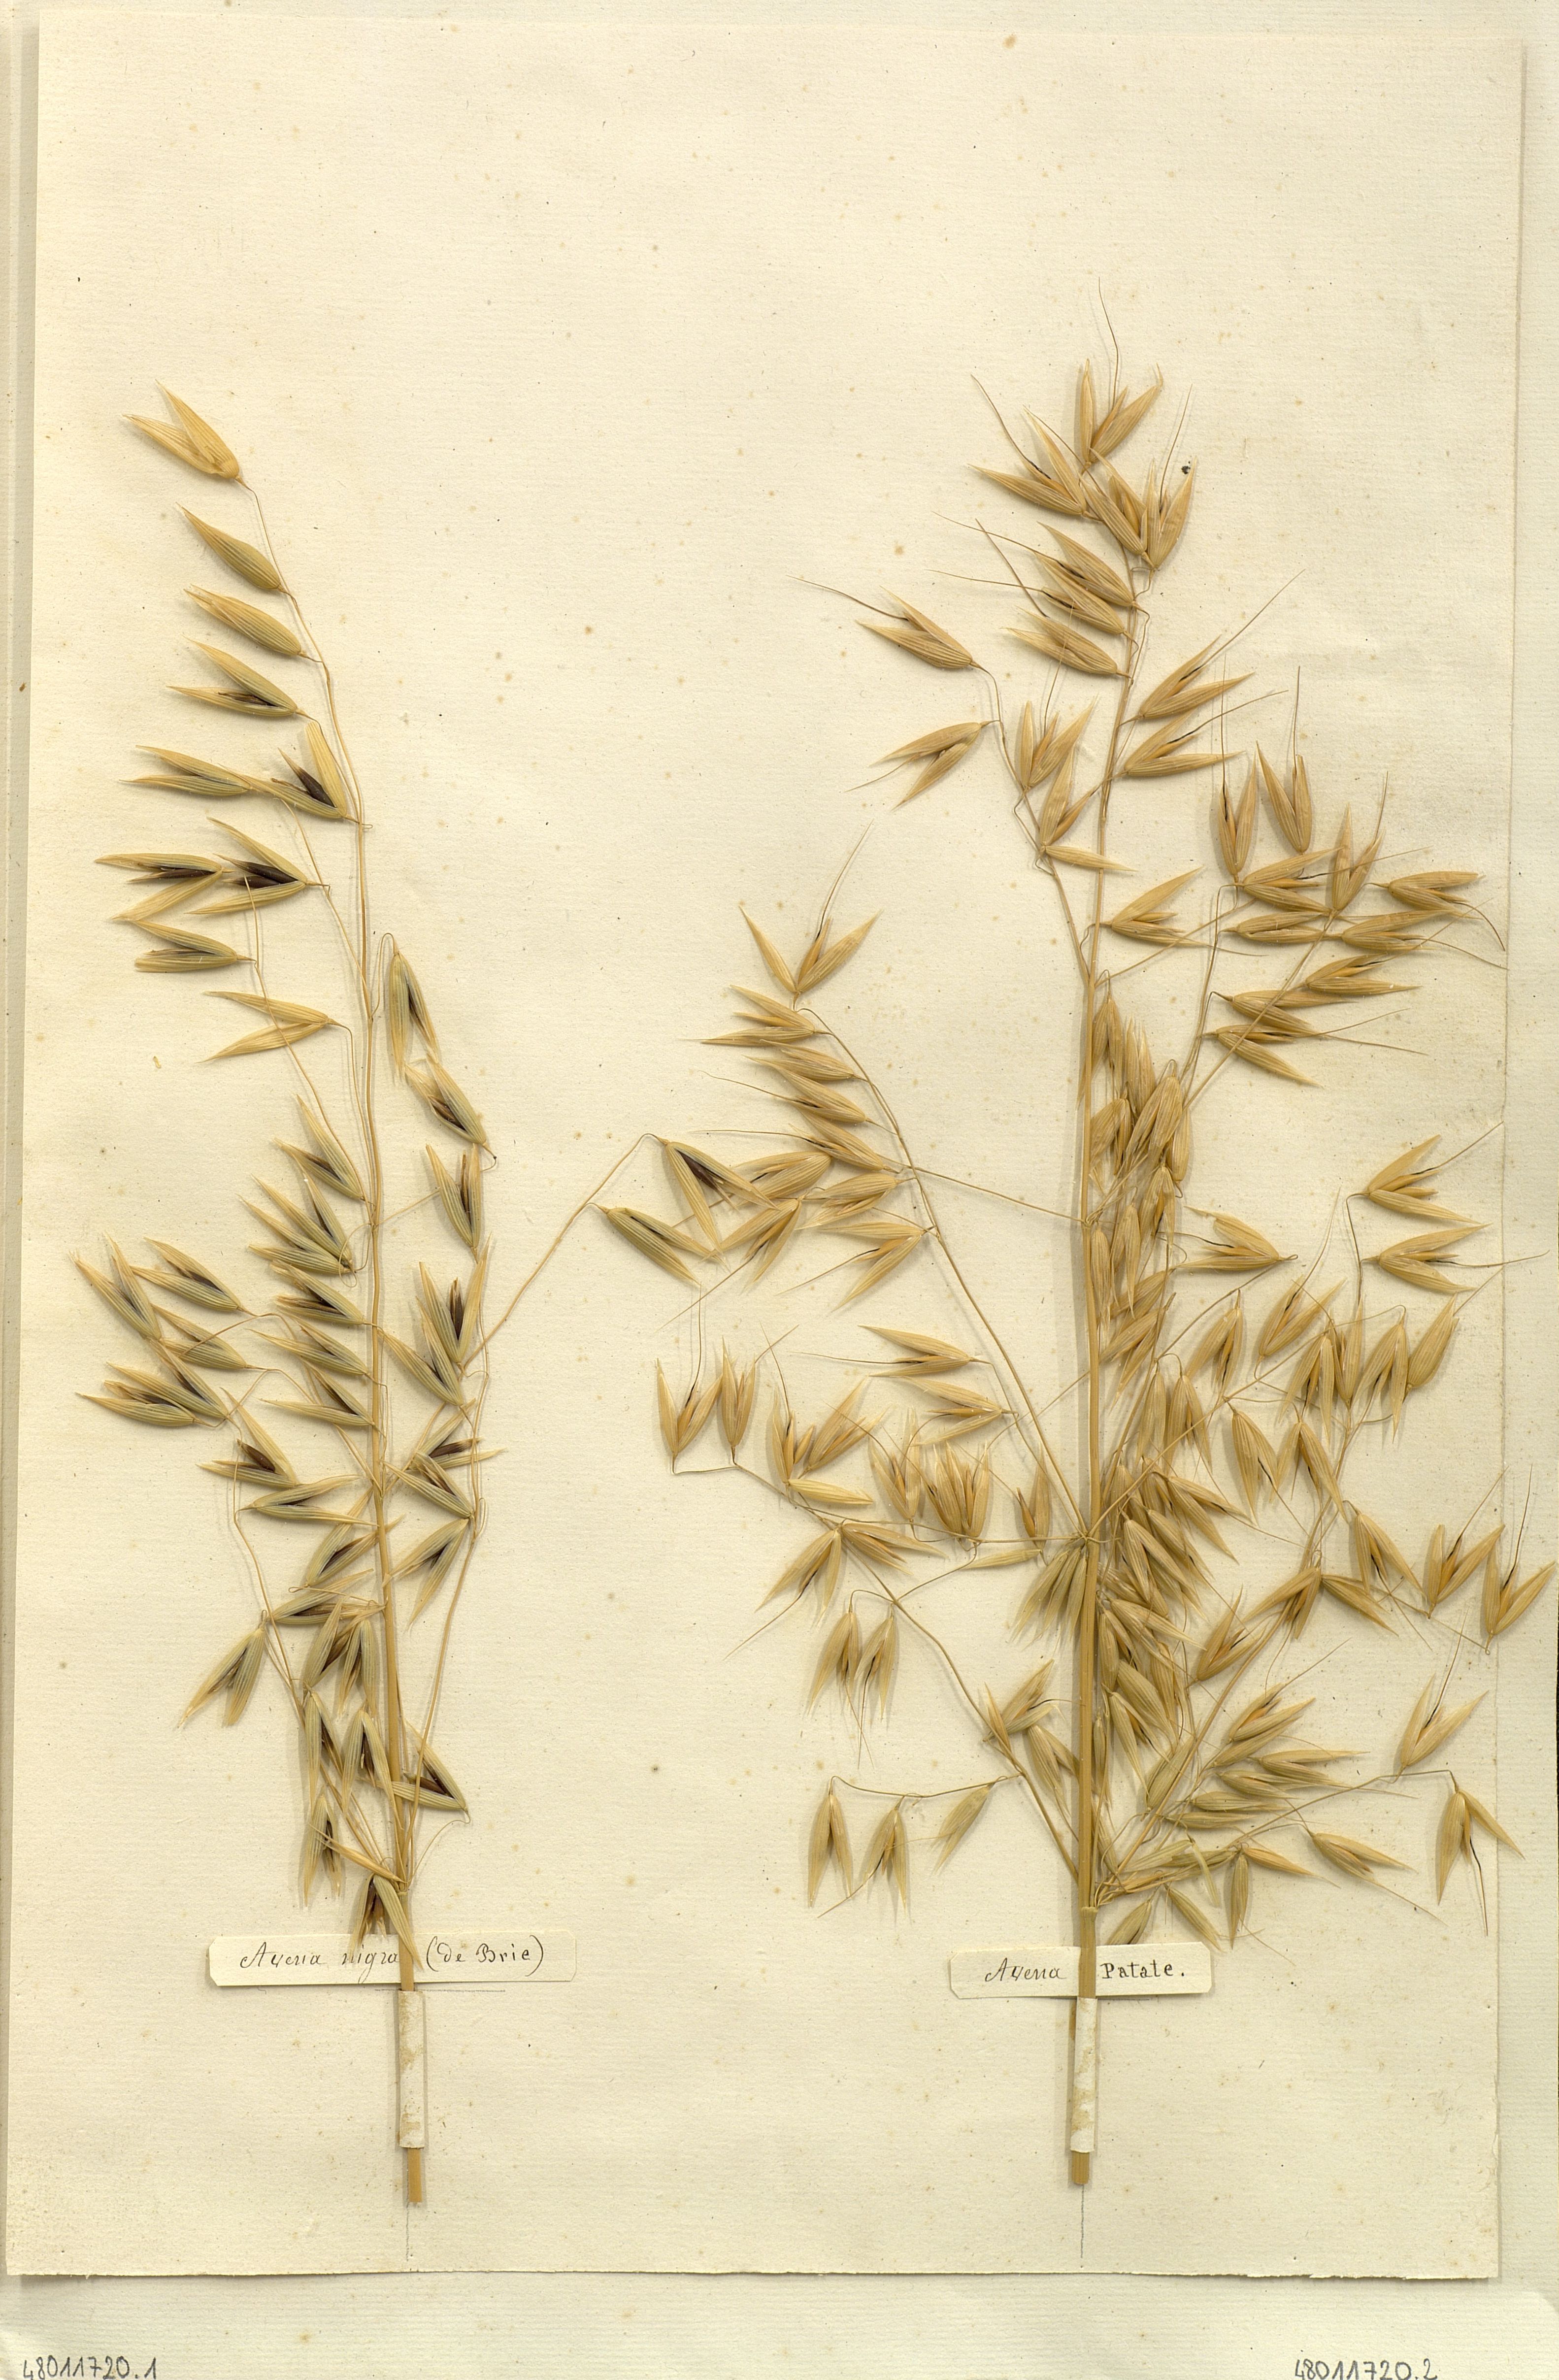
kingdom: Plantae
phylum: Tracheophyta
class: Liliopsida
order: Poales
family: Poaceae
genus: Avena
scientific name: Avena
